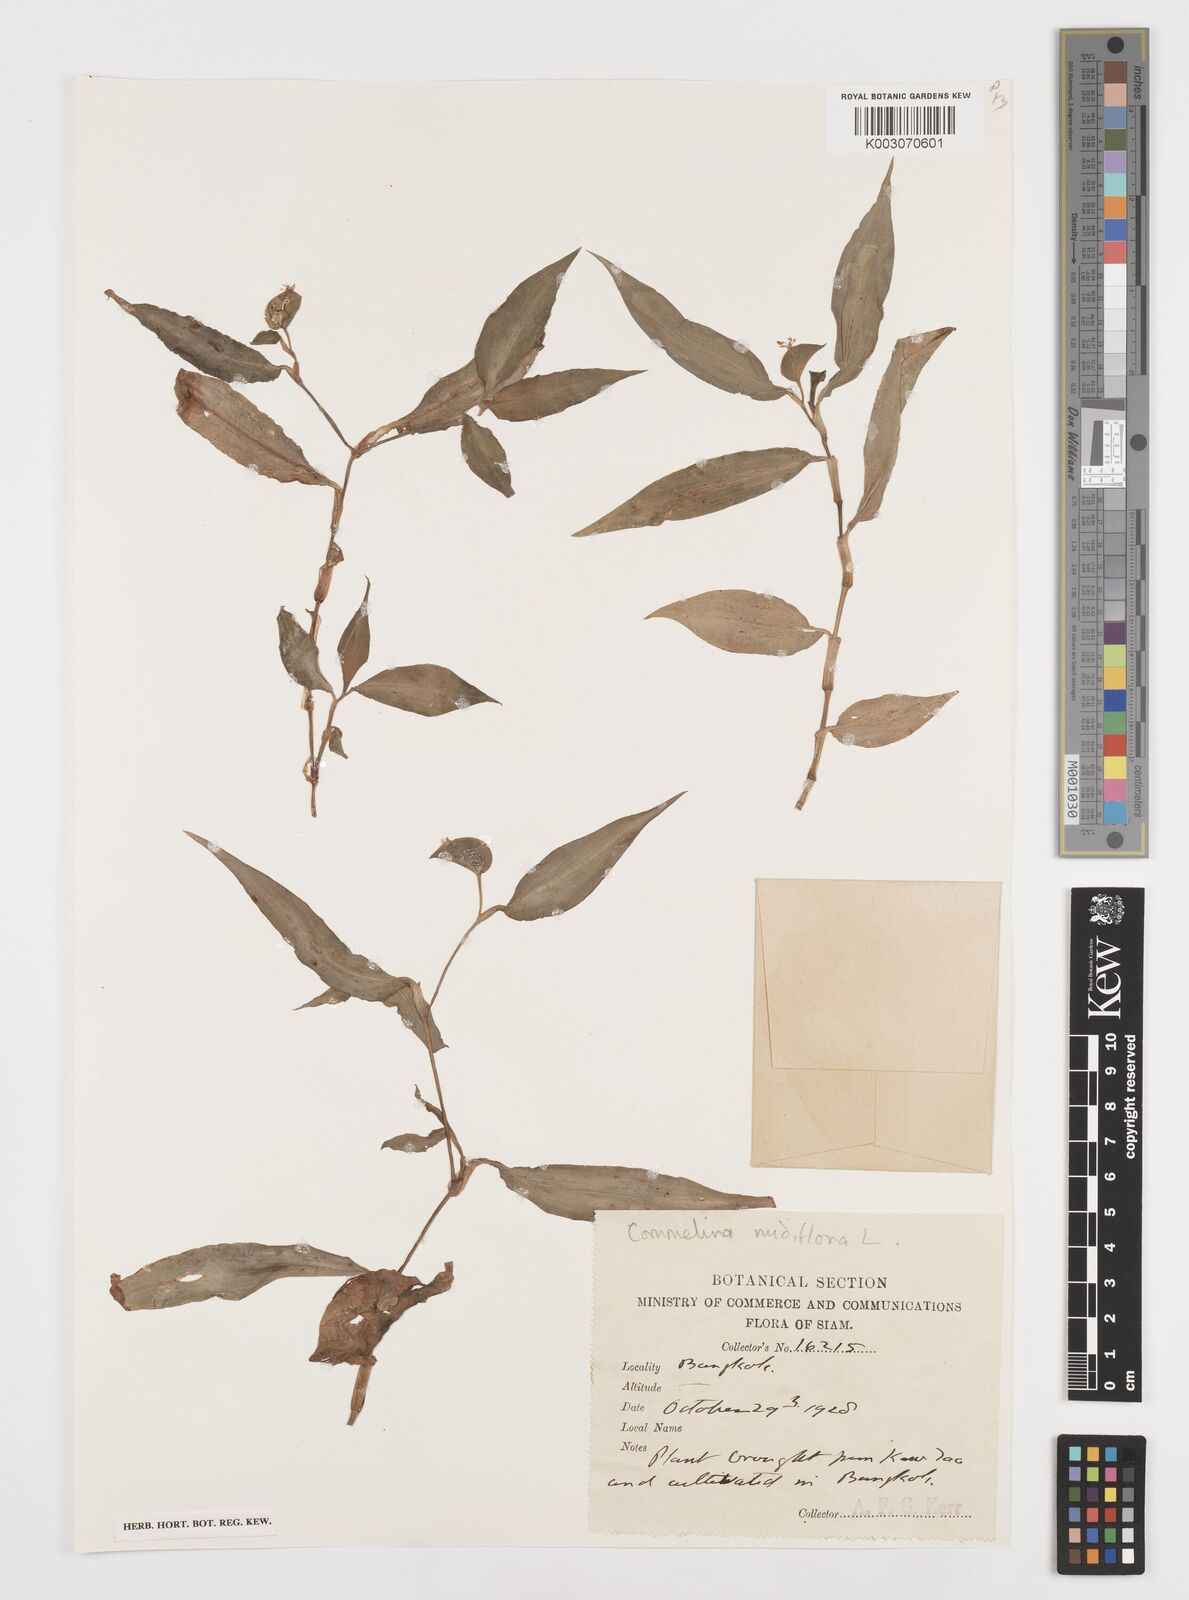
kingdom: Plantae
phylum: Tracheophyta
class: Liliopsida
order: Commelinales
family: Commelinaceae
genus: Commelina
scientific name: Commelina clavata
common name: Willow leaved dayflower
